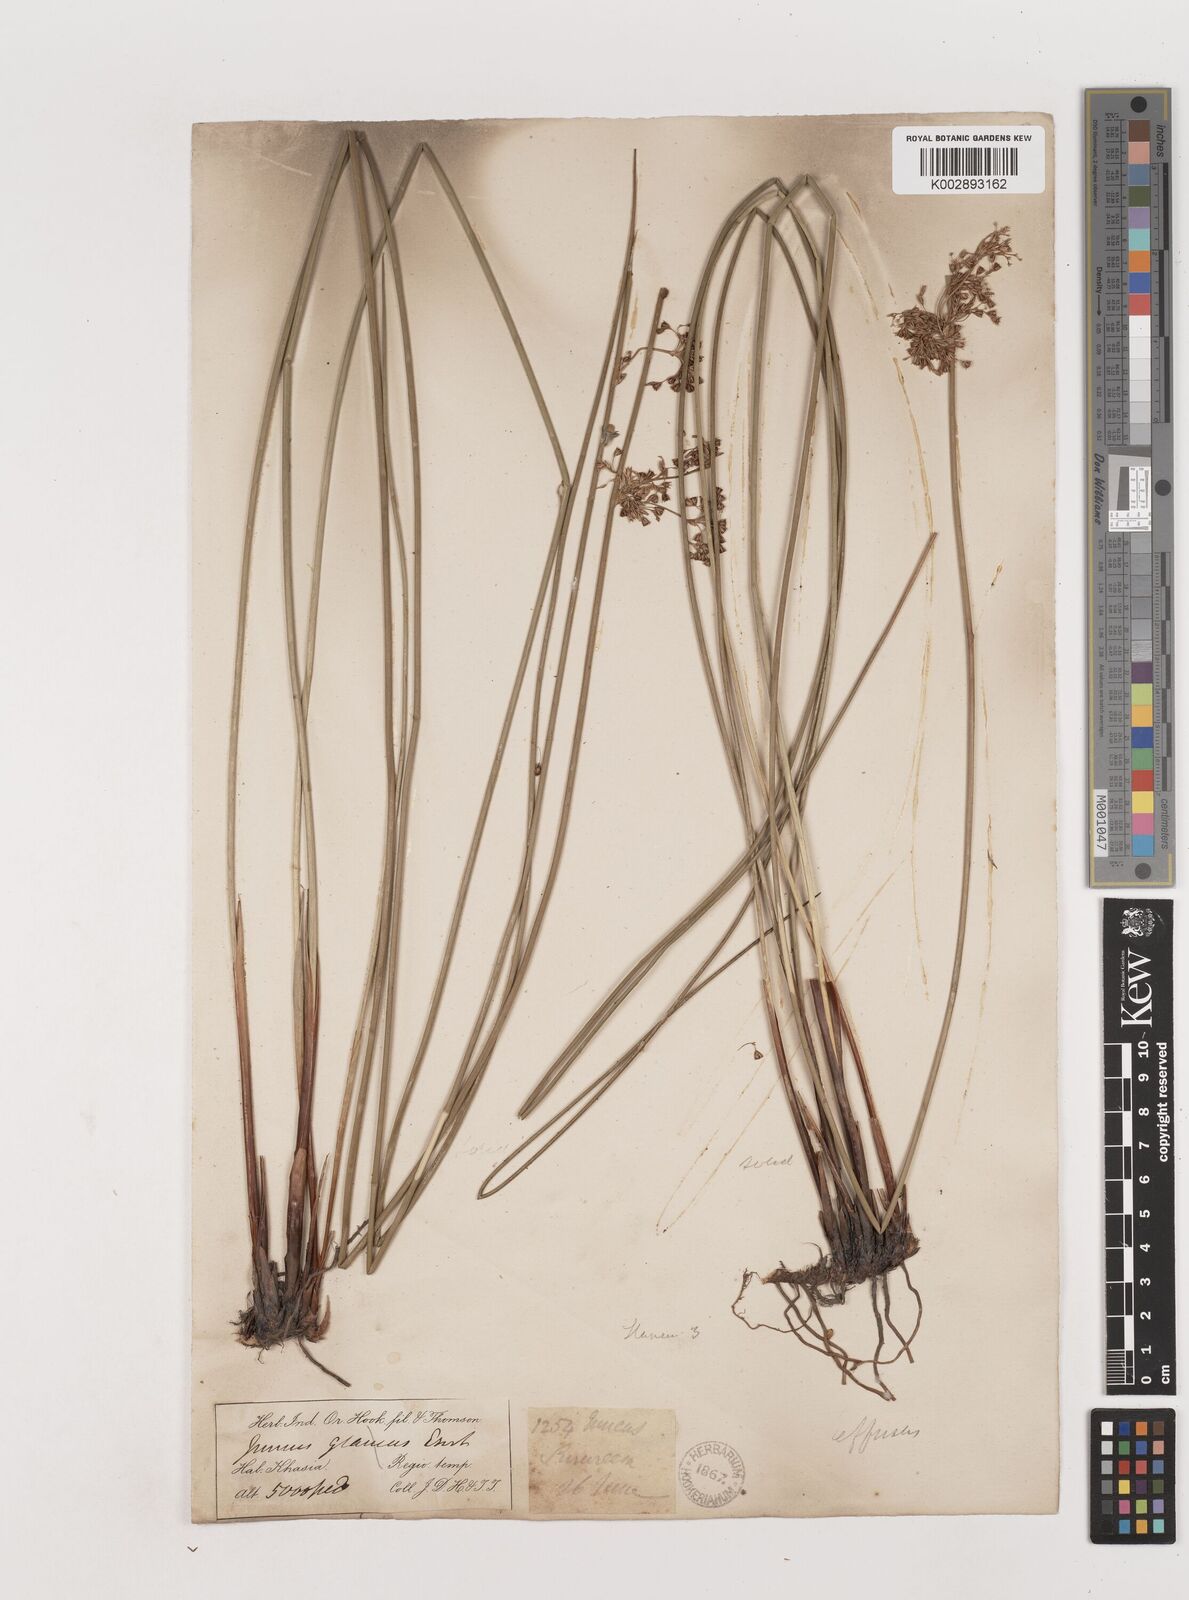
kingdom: Plantae
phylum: Tracheophyta
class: Liliopsida
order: Poales
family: Juncaceae
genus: Juncus
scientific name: Juncus effusus
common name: Soft rush
